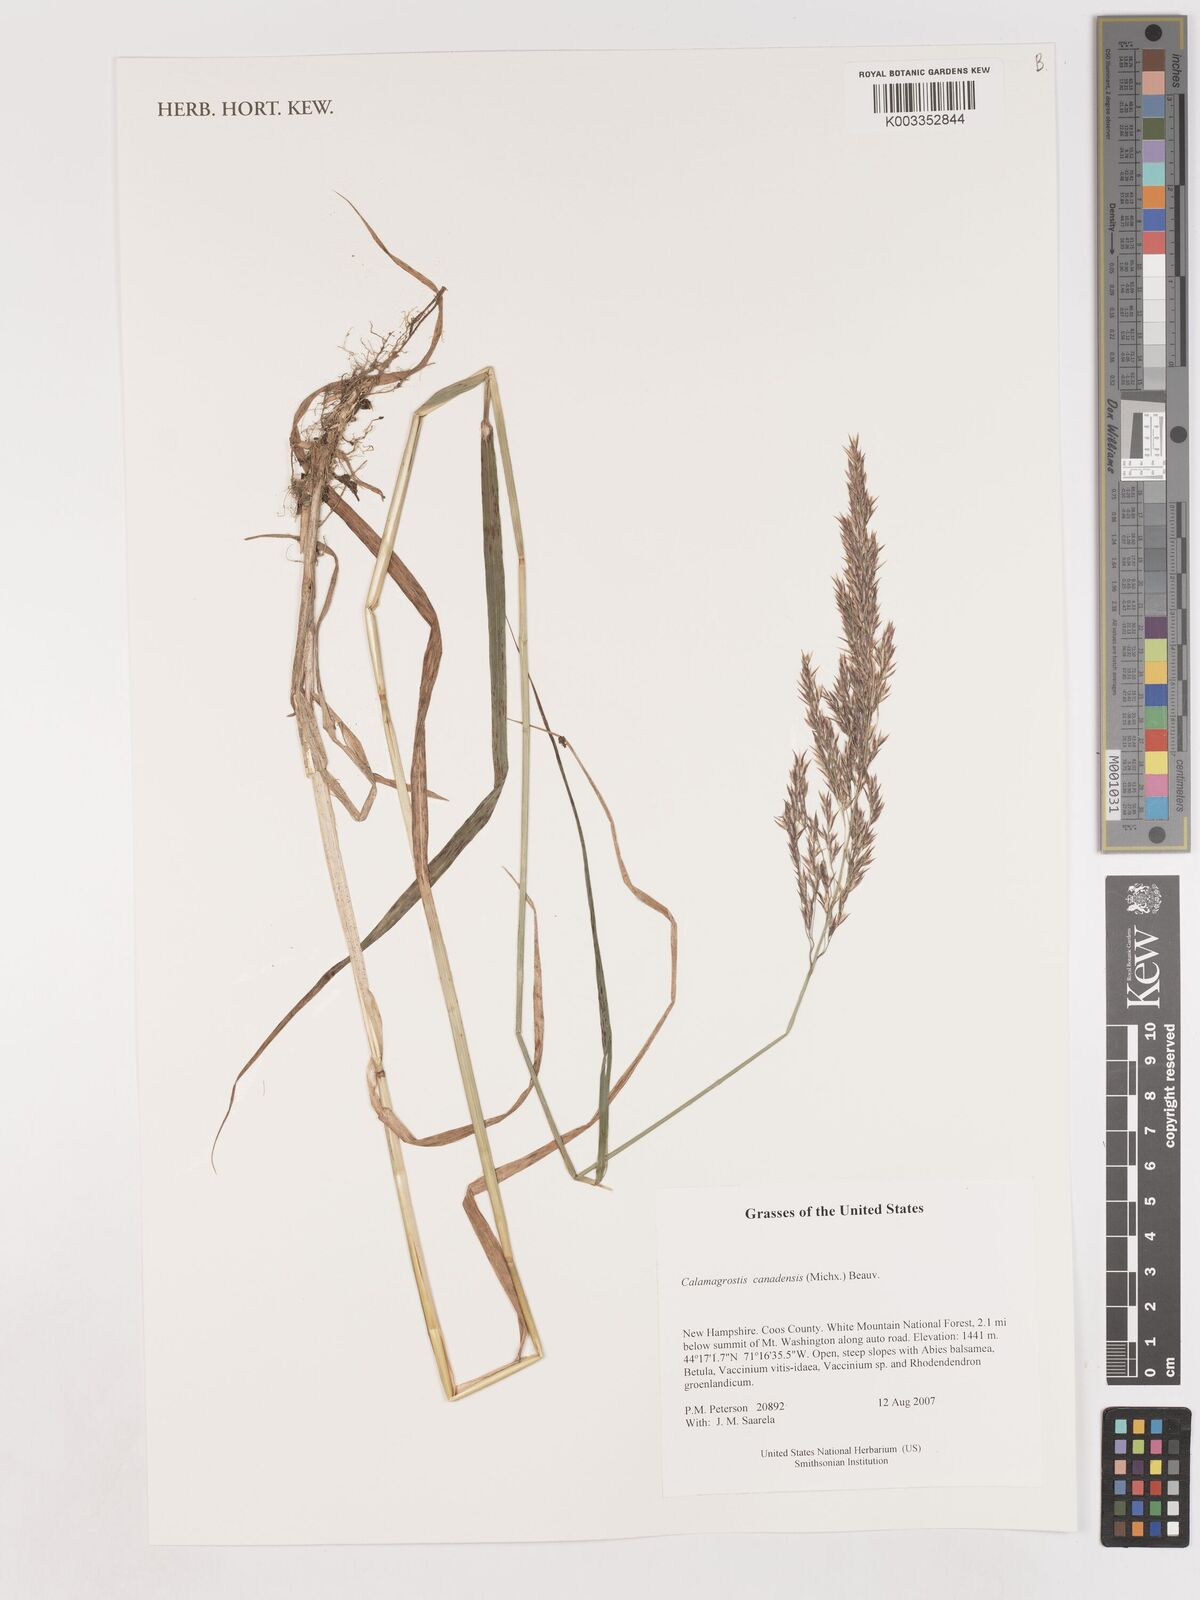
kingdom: Plantae
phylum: Tracheophyta
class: Liliopsida
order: Poales
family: Poaceae
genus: Calamagrostis
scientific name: Calamagrostis canadensis
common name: Canada bluejoint
